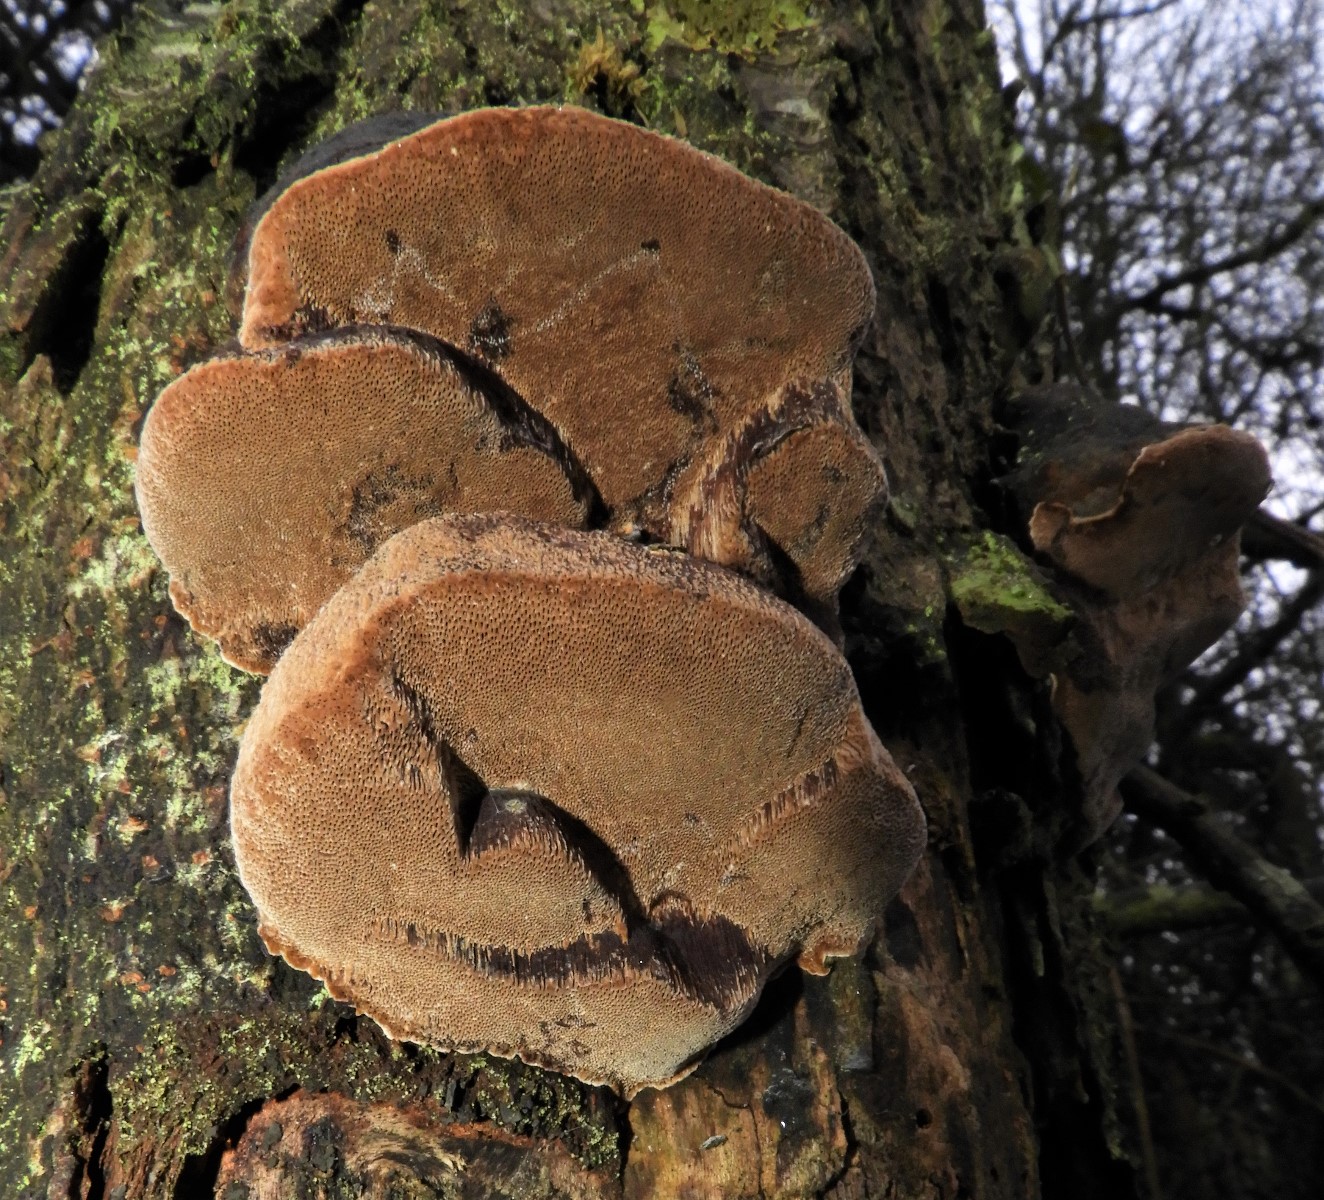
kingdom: Fungi
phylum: Basidiomycota
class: Agaricomycetes
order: Hymenochaetales
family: Hymenochaetaceae
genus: Phellinus
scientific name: Phellinus pomaceus
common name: blomme-ildporesvamp
